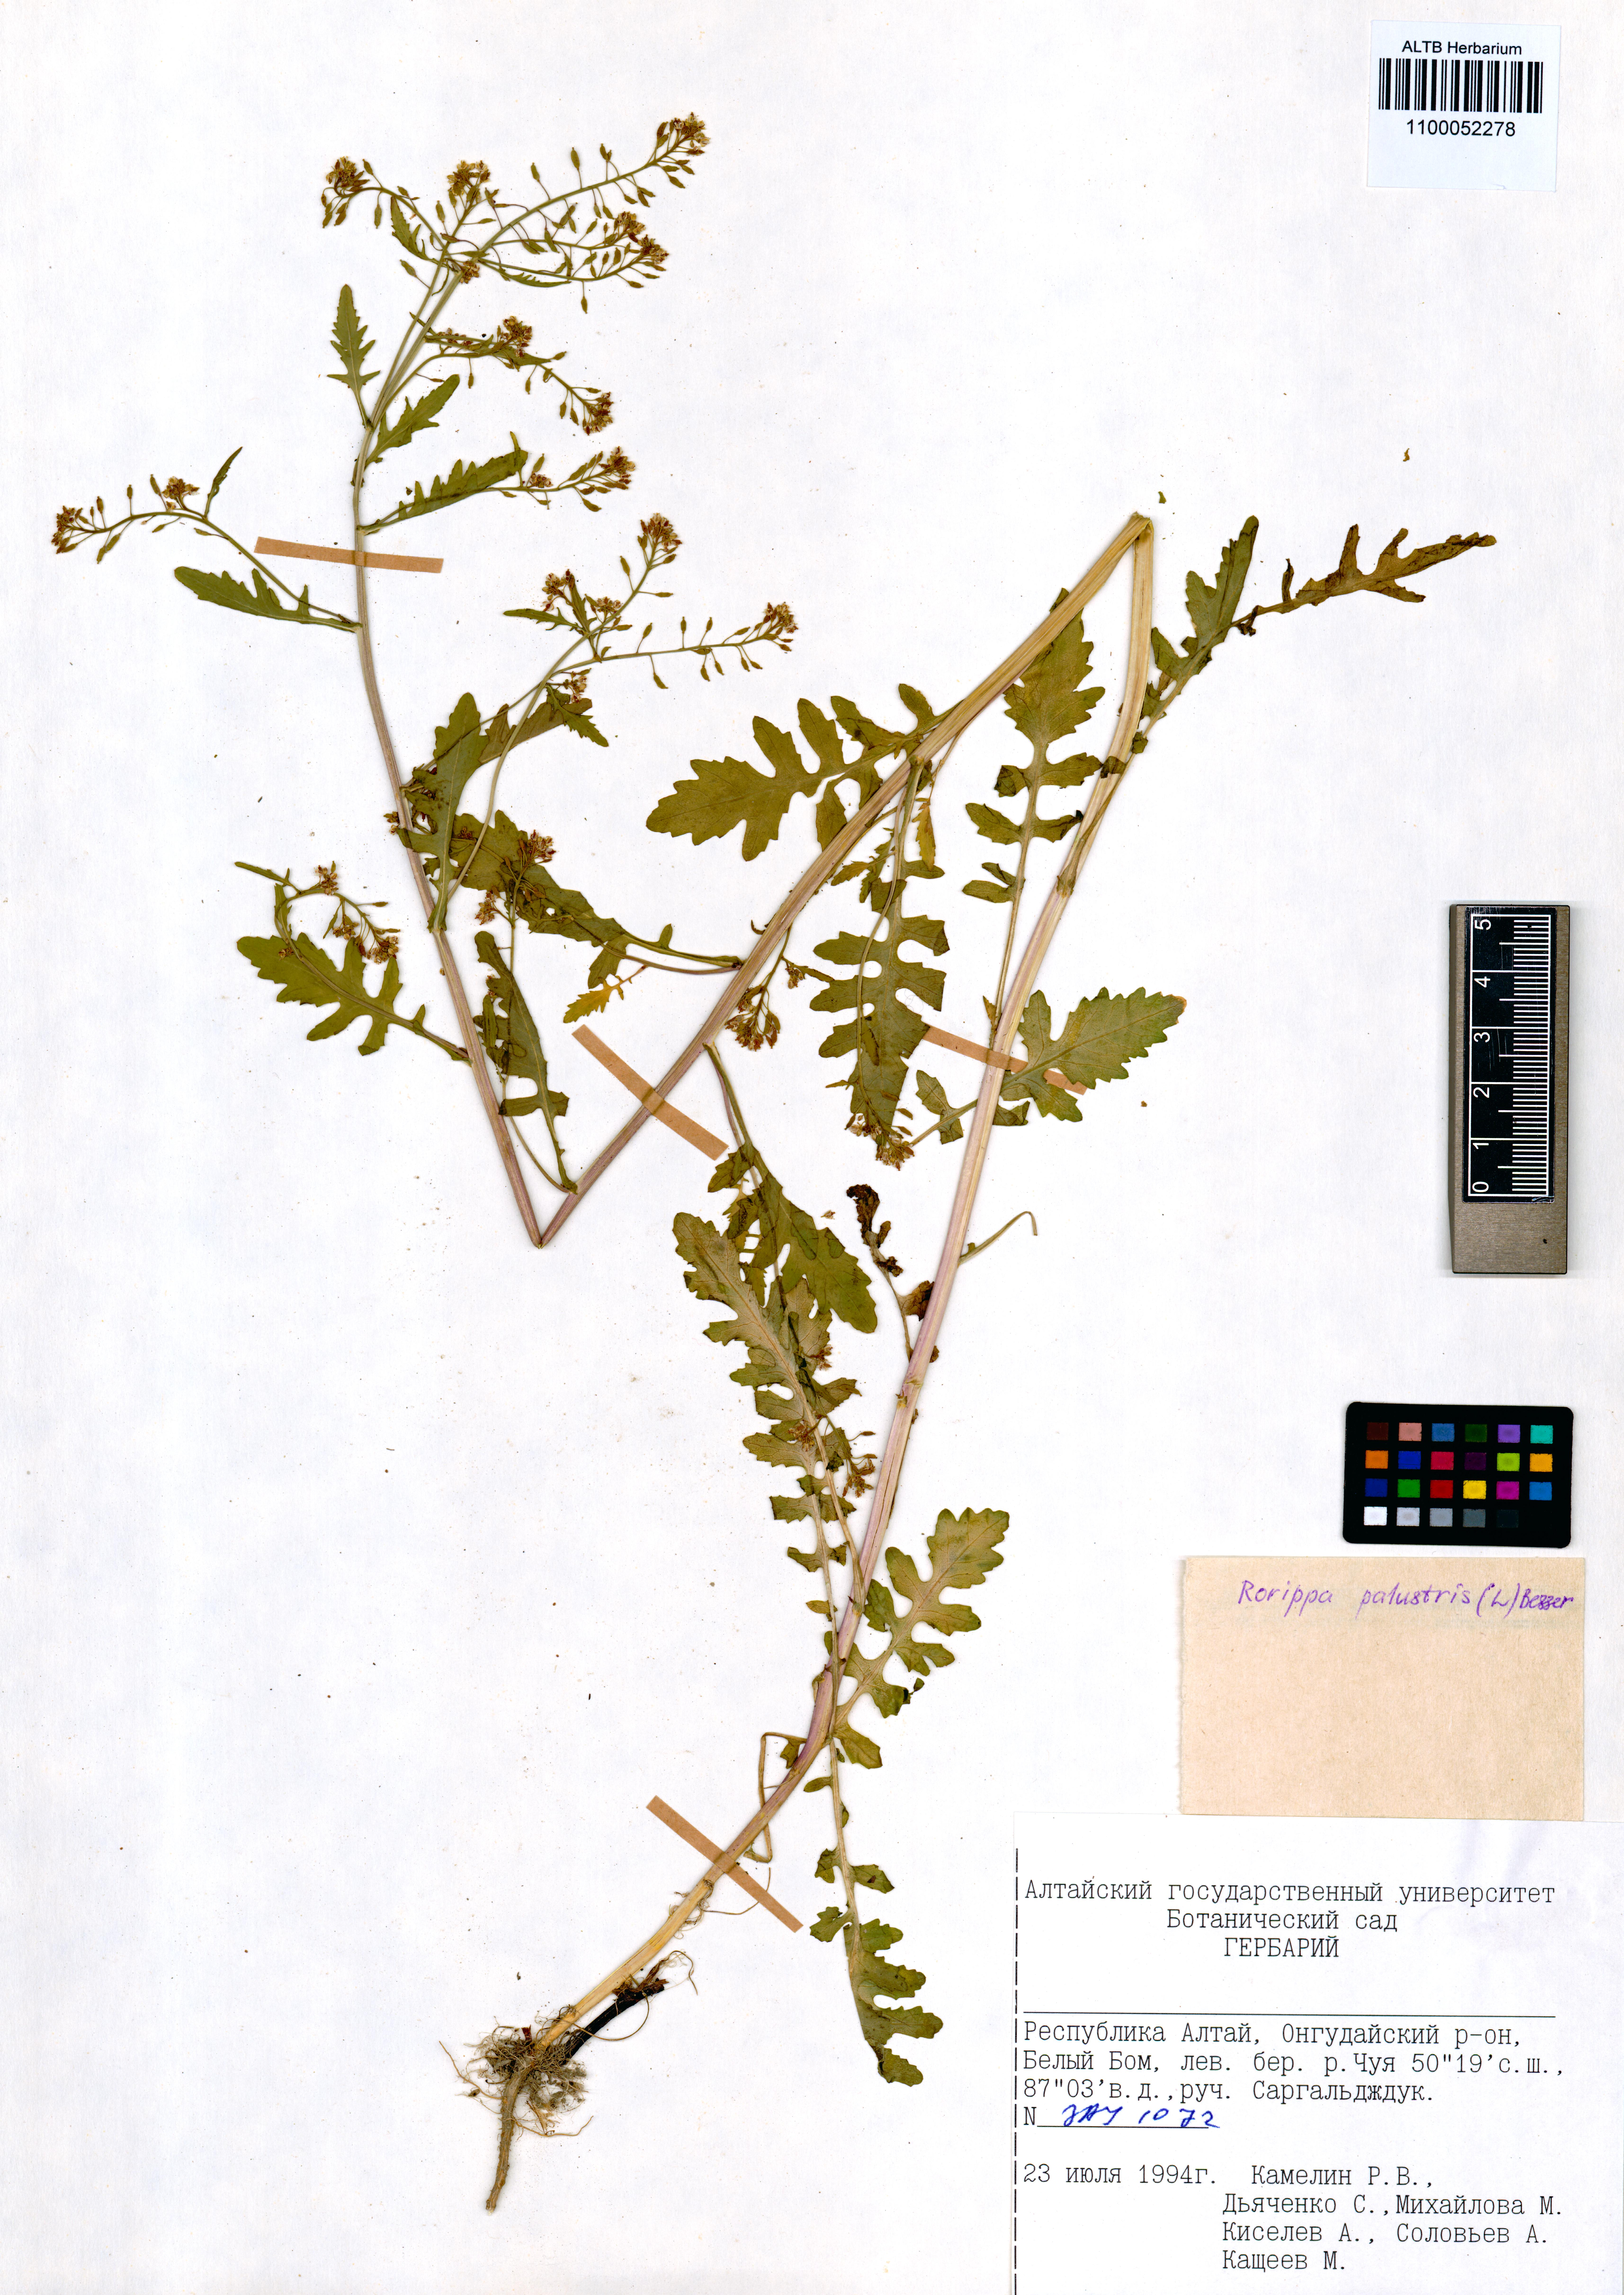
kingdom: Plantae
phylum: Tracheophyta
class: Magnoliopsida
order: Brassicales
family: Brassicaceae
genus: Rorippa
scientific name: Rorippa palustris
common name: Marsh yellow-cress
